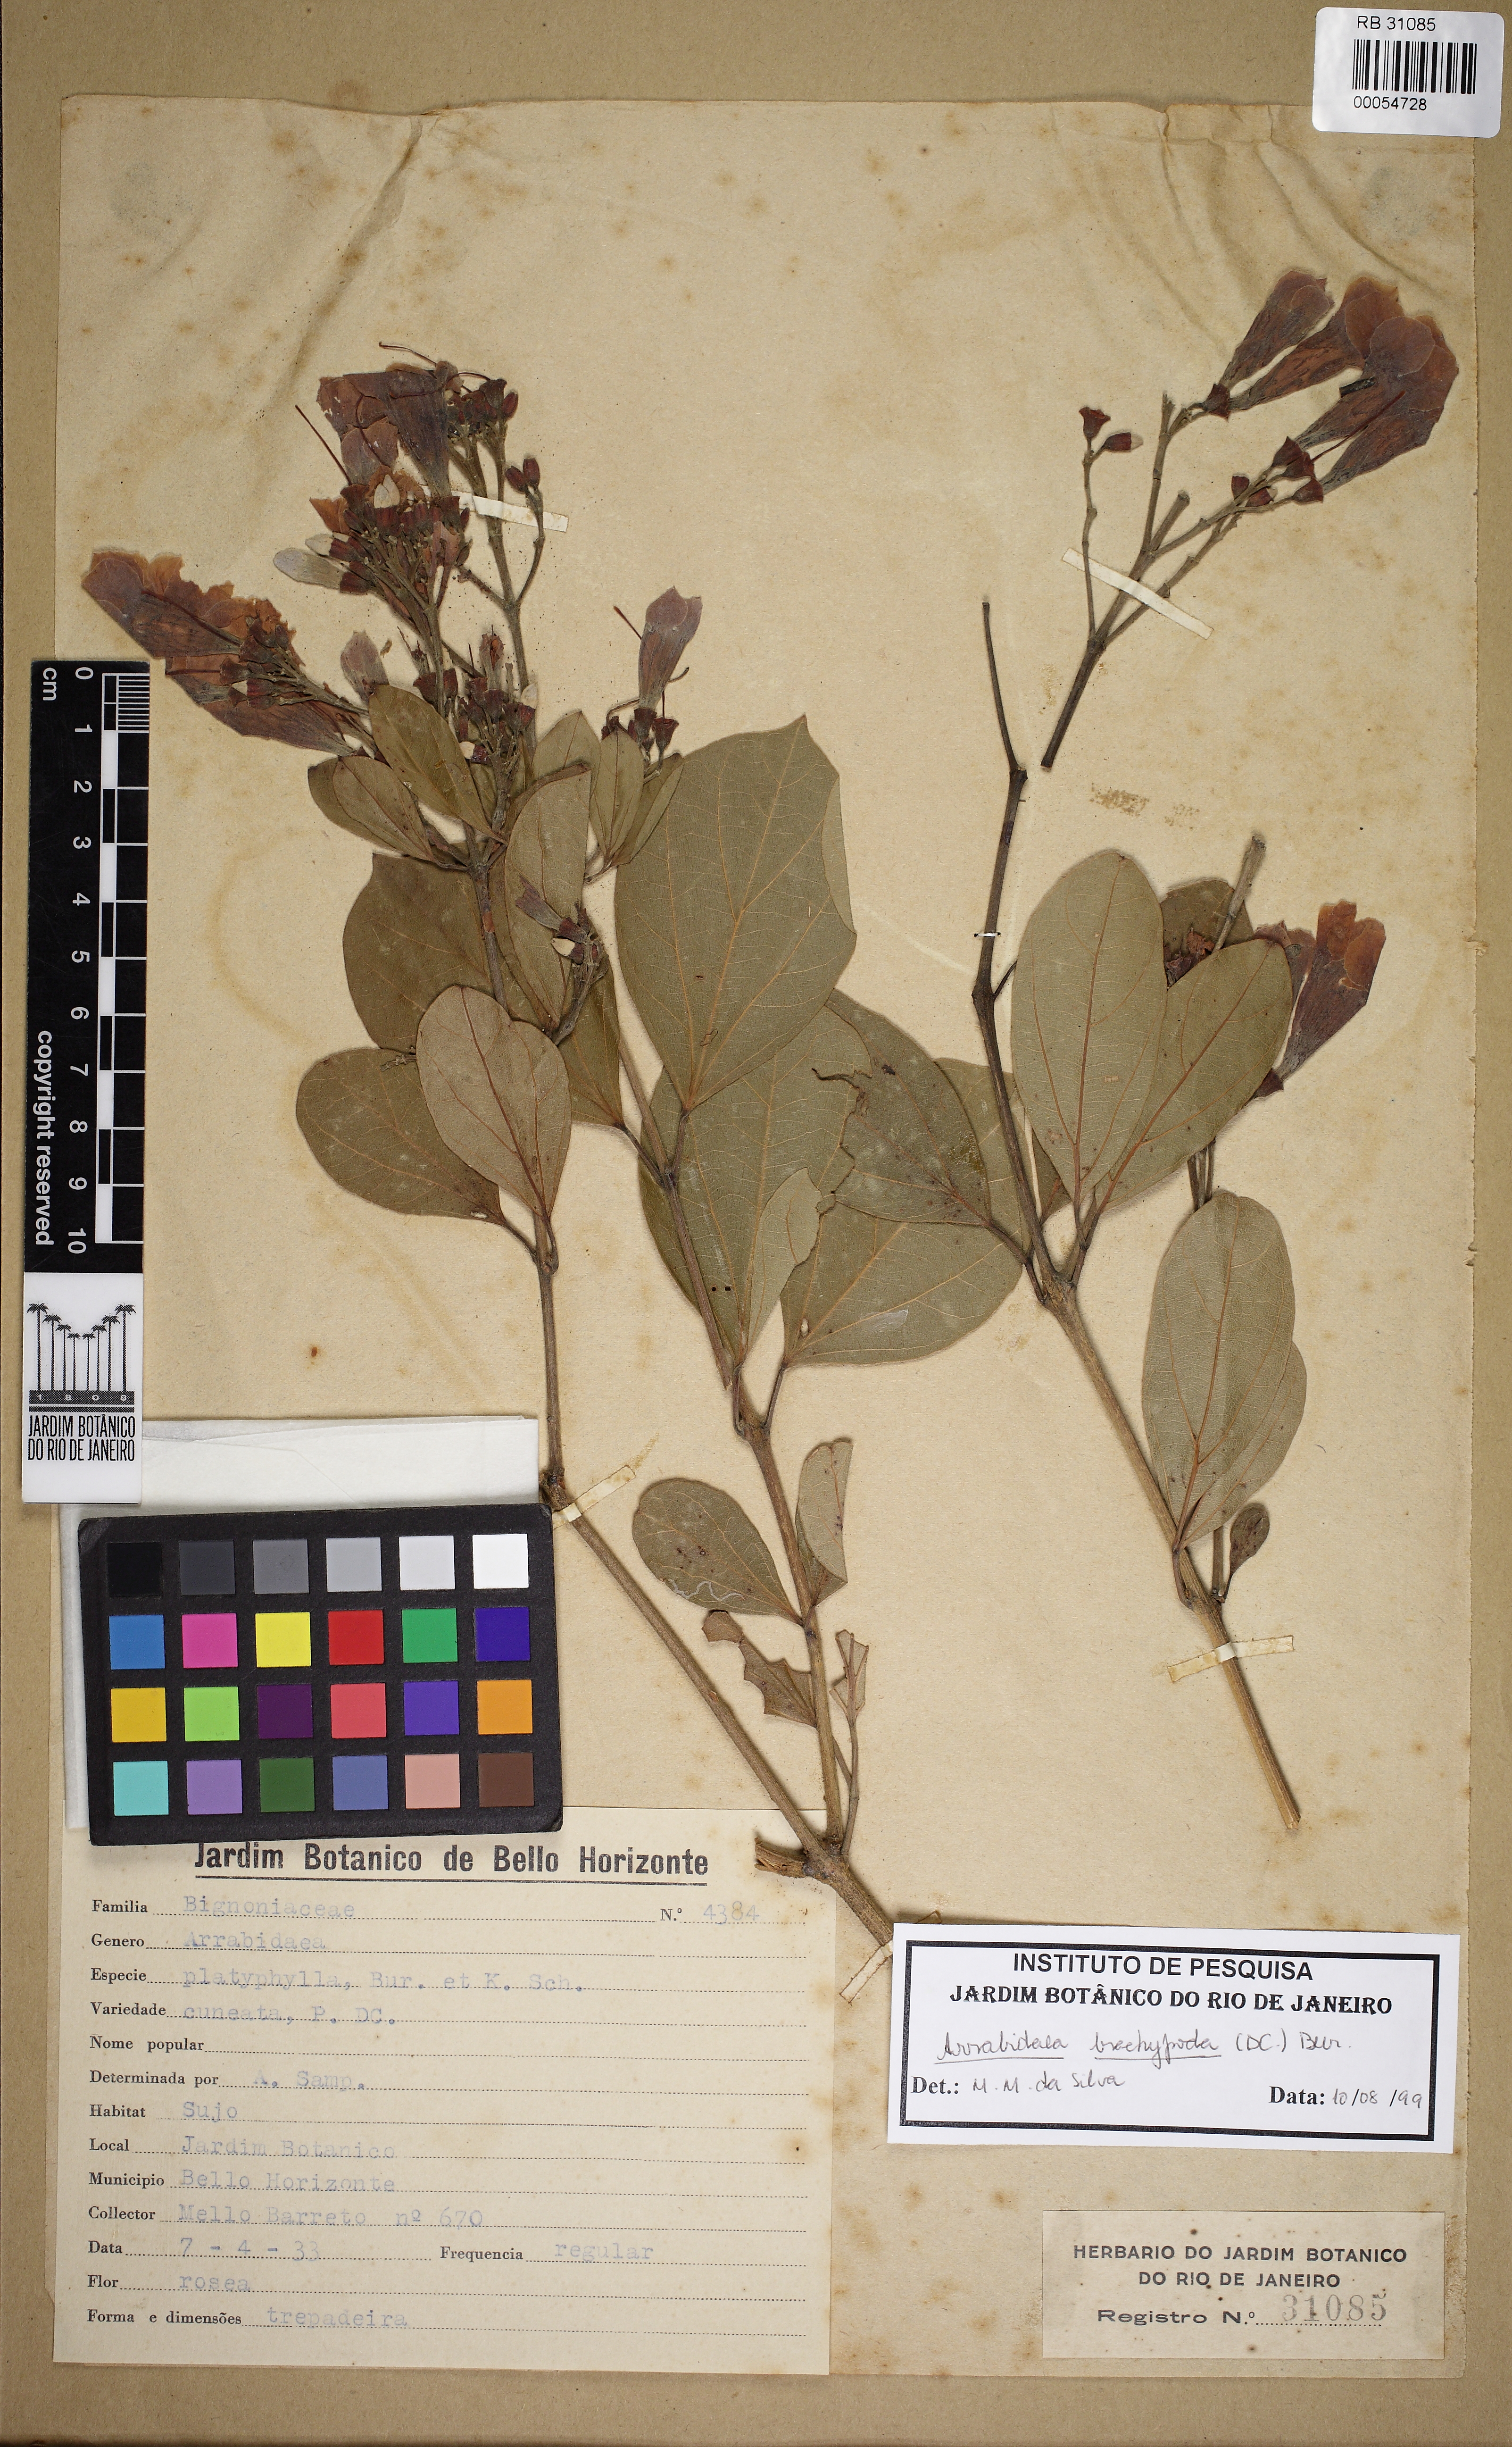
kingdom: Plantae
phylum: Tracheophyta
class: Magnoliopsida
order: Lamiales
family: Bignoniaceae
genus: Fridericia
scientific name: Fridericia platyphylla
